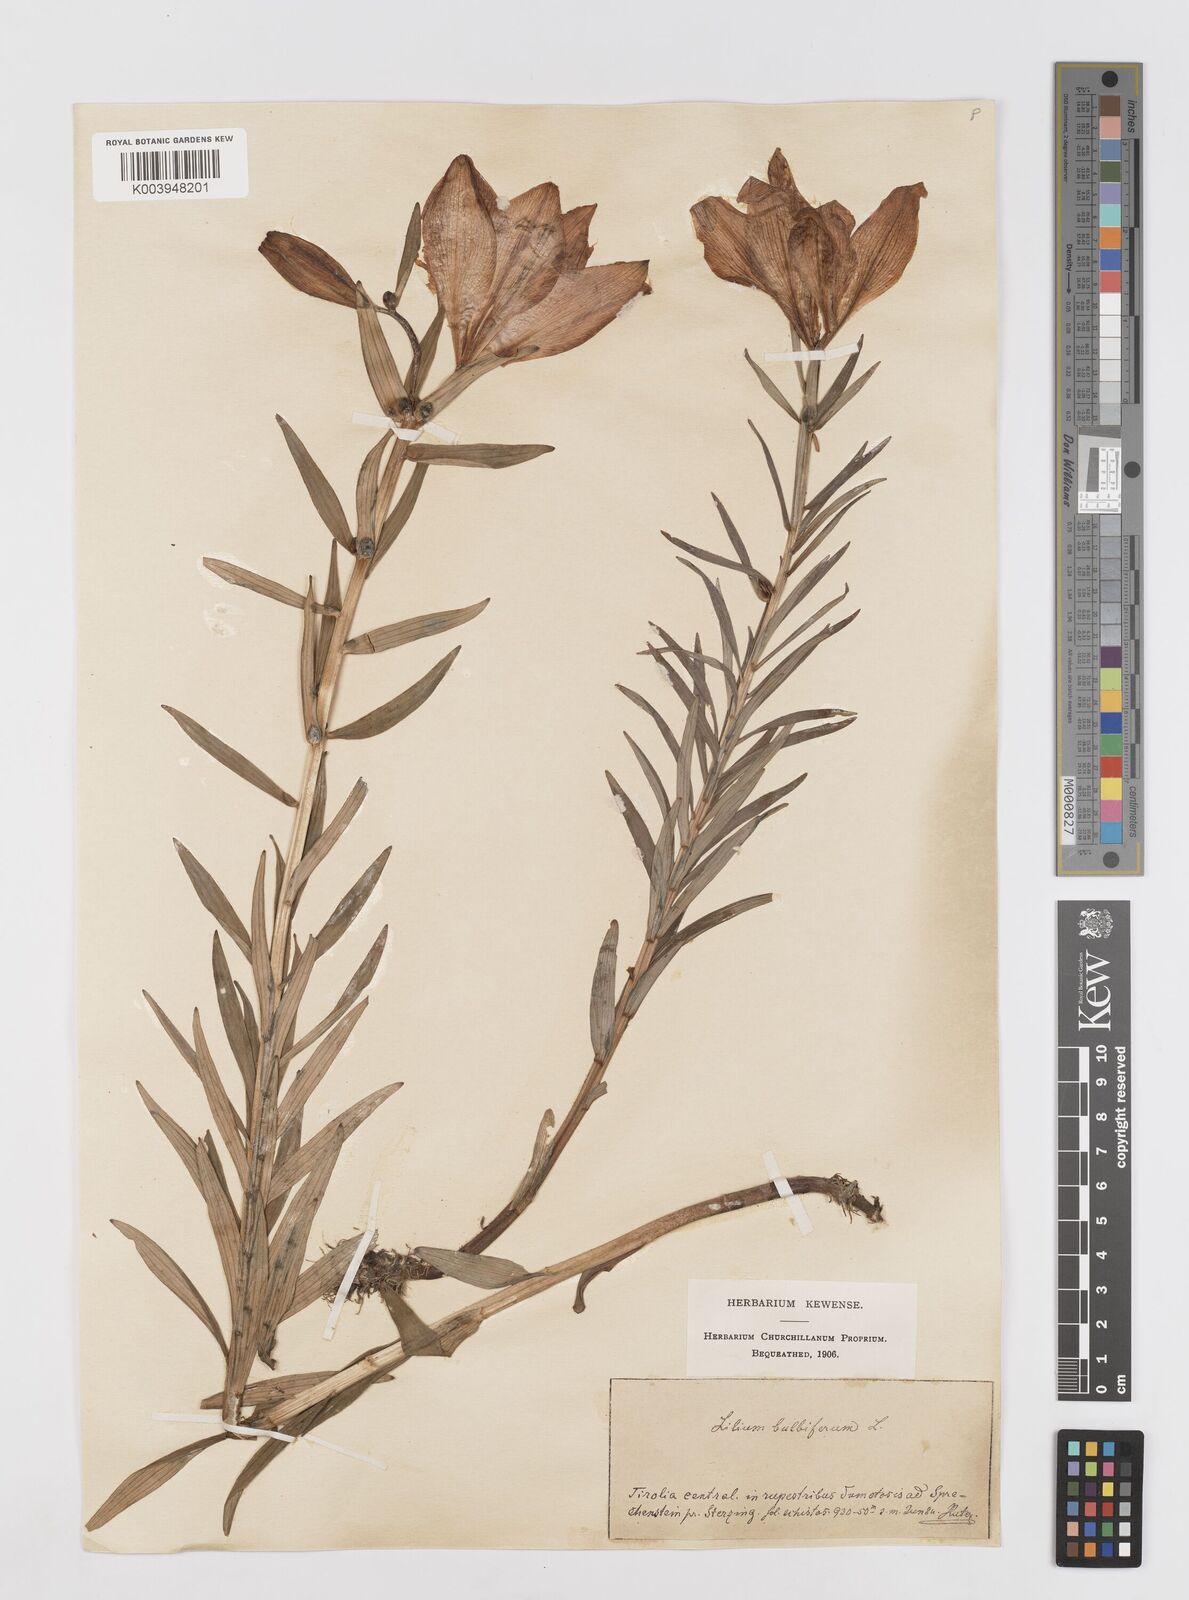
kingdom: Plantae
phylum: Tracheophyta
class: Liliopsida
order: Liliales
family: Liliaceae
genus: Lilium
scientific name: Lilium bulbiferum
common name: Orange lily
